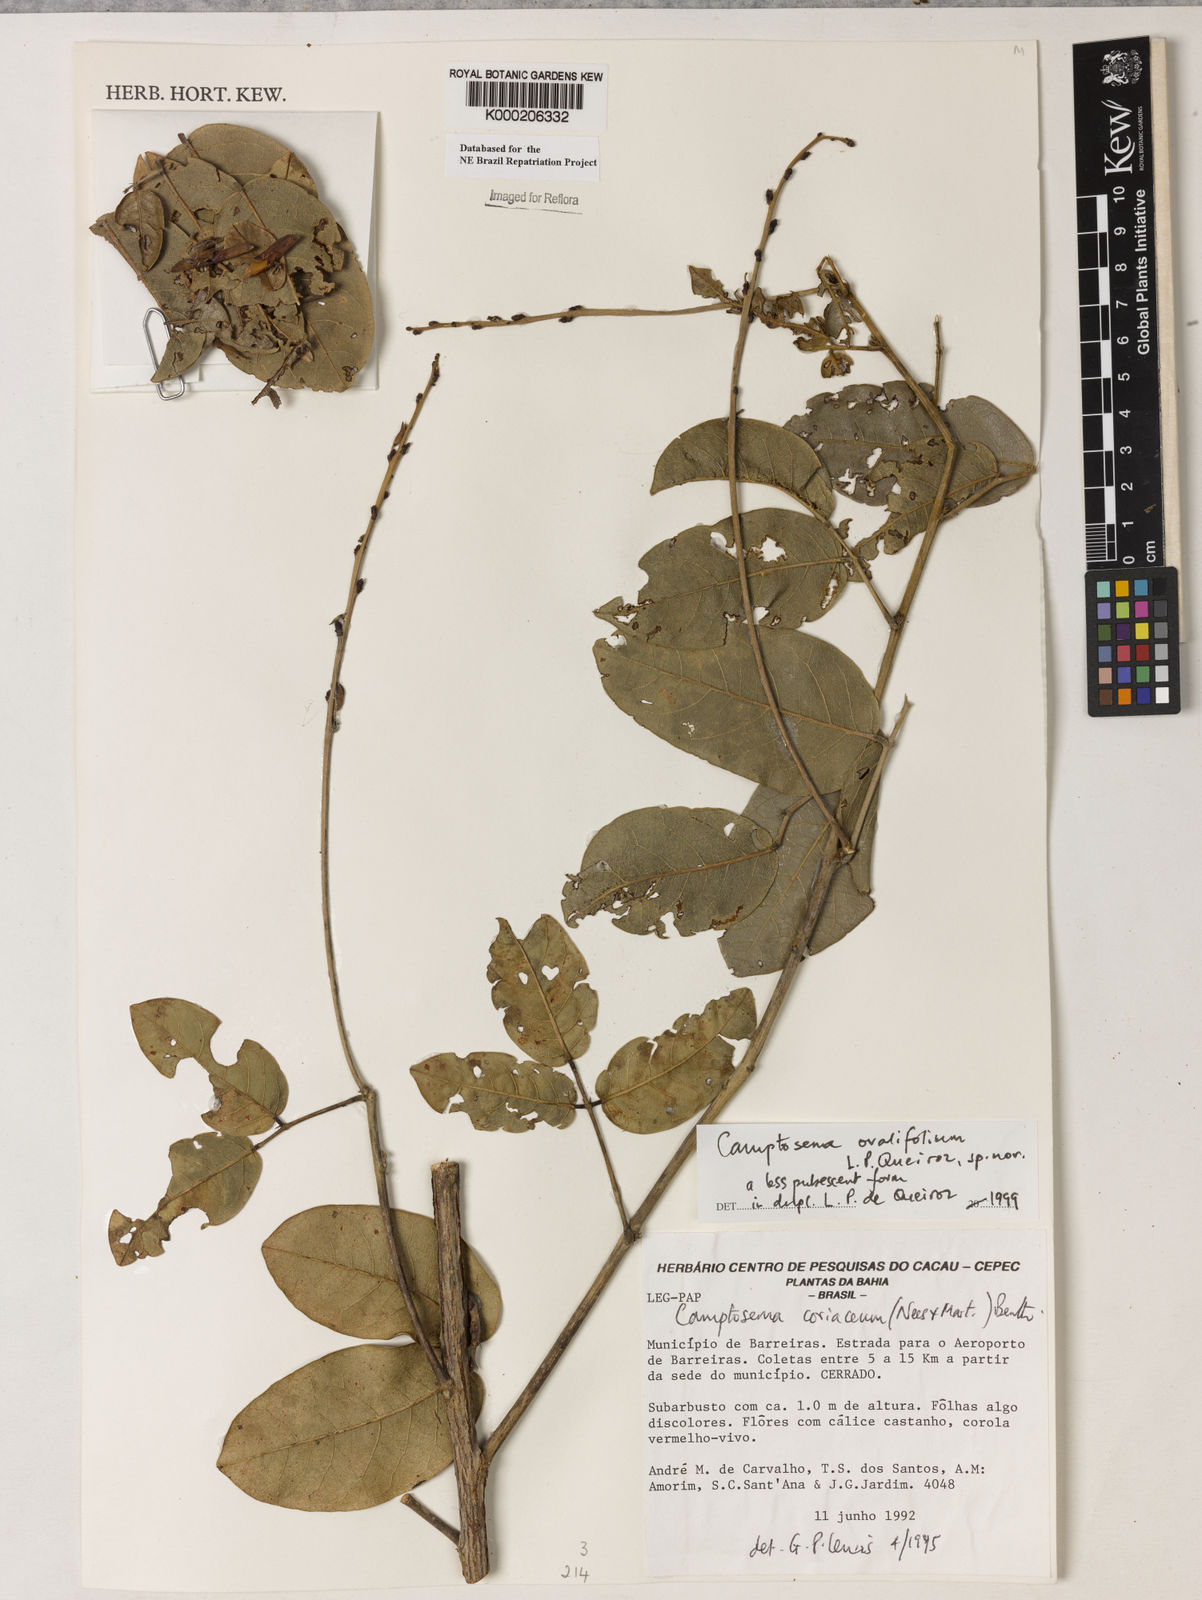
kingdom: Plantae
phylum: Tracheophyta
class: Magnoliopsida
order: Fabales
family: Fabaceae
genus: Camptosema
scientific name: Camptosema
